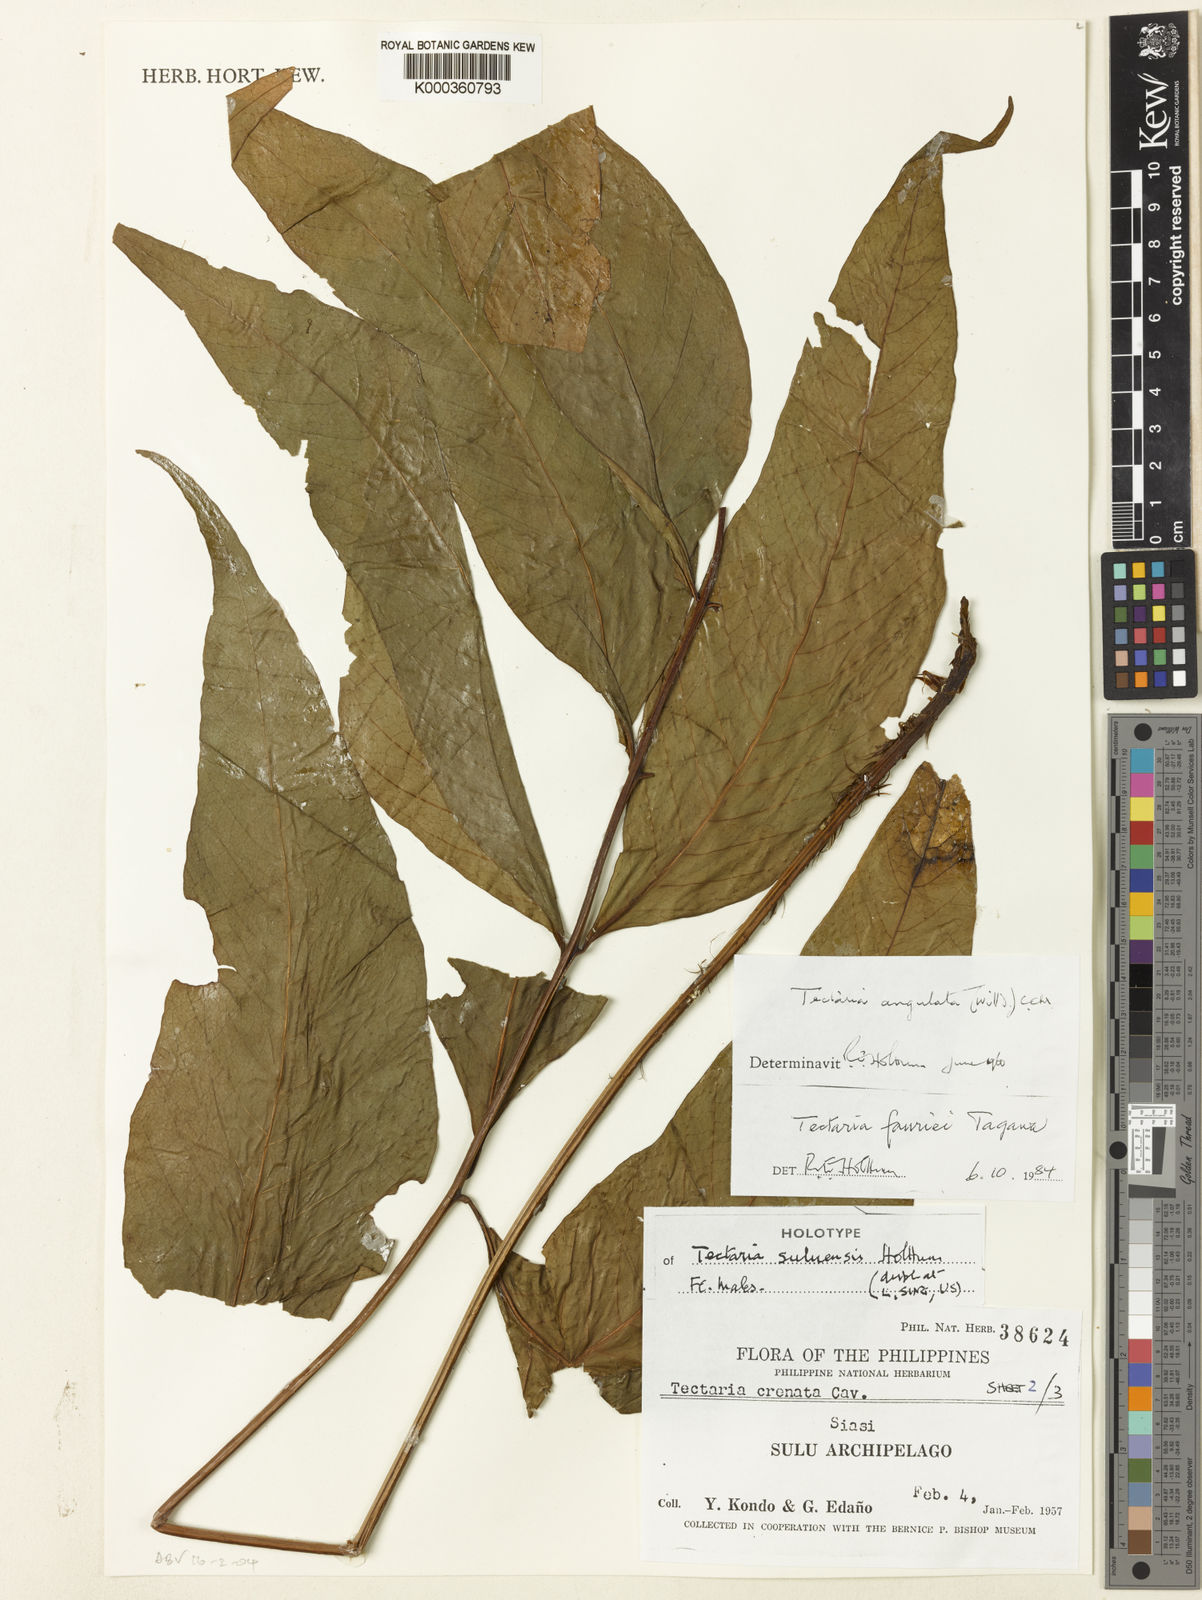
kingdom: Plantae
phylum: Tracheophyta
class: Polypodiopsida
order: Polypodiales
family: Tectariaceae
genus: Tectaria
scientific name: Tectaria suluensis
